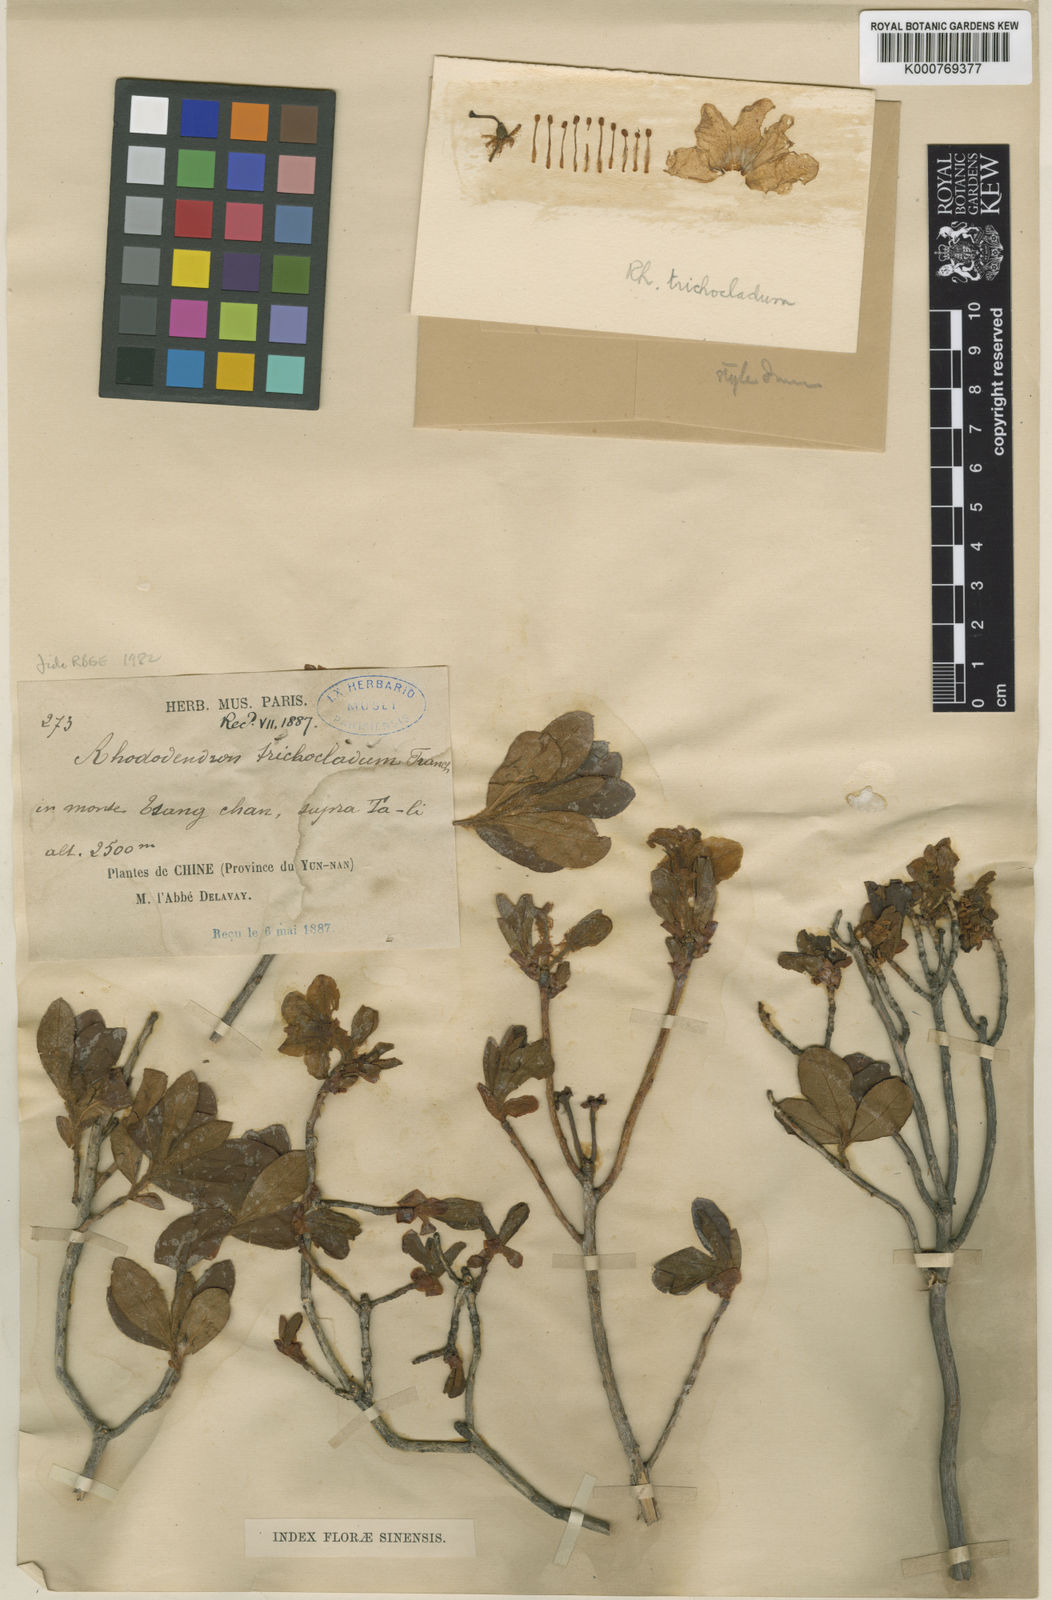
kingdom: Plantae
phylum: Tracheophyta
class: Magnoliopsida
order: Ericales
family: Ericaceae
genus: Rhododendron
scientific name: Rhododendron trichocladum
